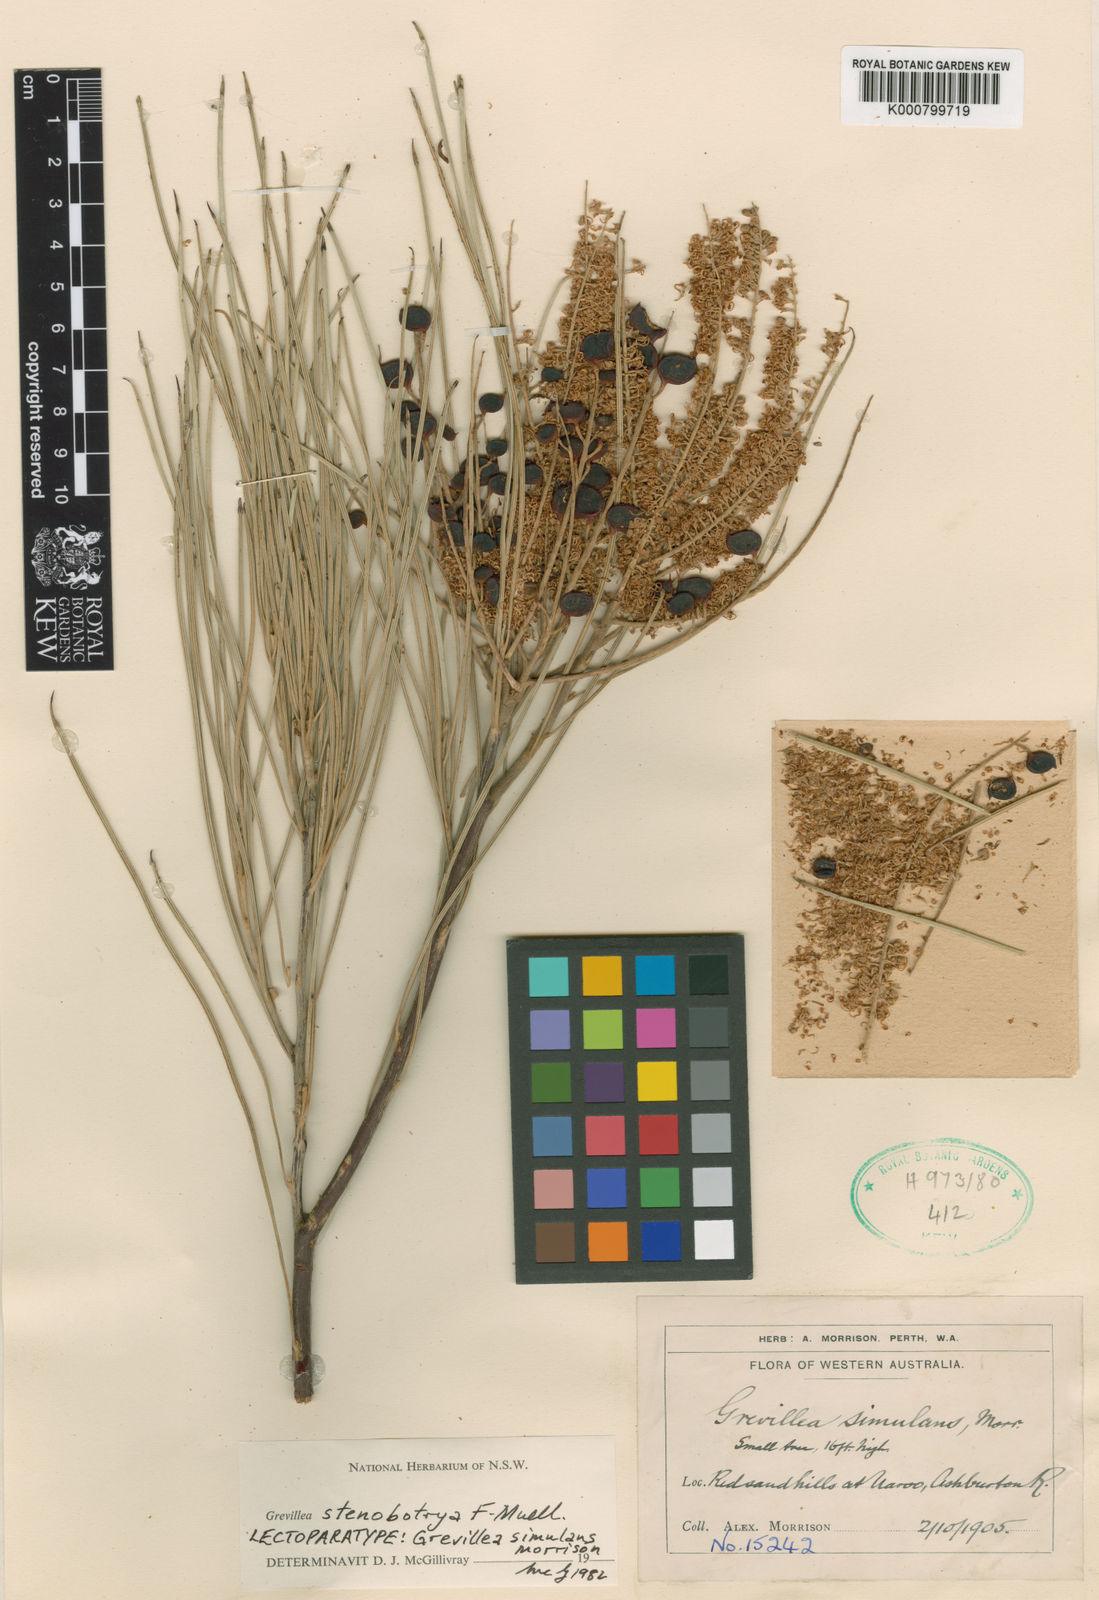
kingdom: Plantae
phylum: Tracheophyta
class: Magnoliopsida
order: Proteales
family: Proteaceae
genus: Grevillea
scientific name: Grevillea stenobotrya
